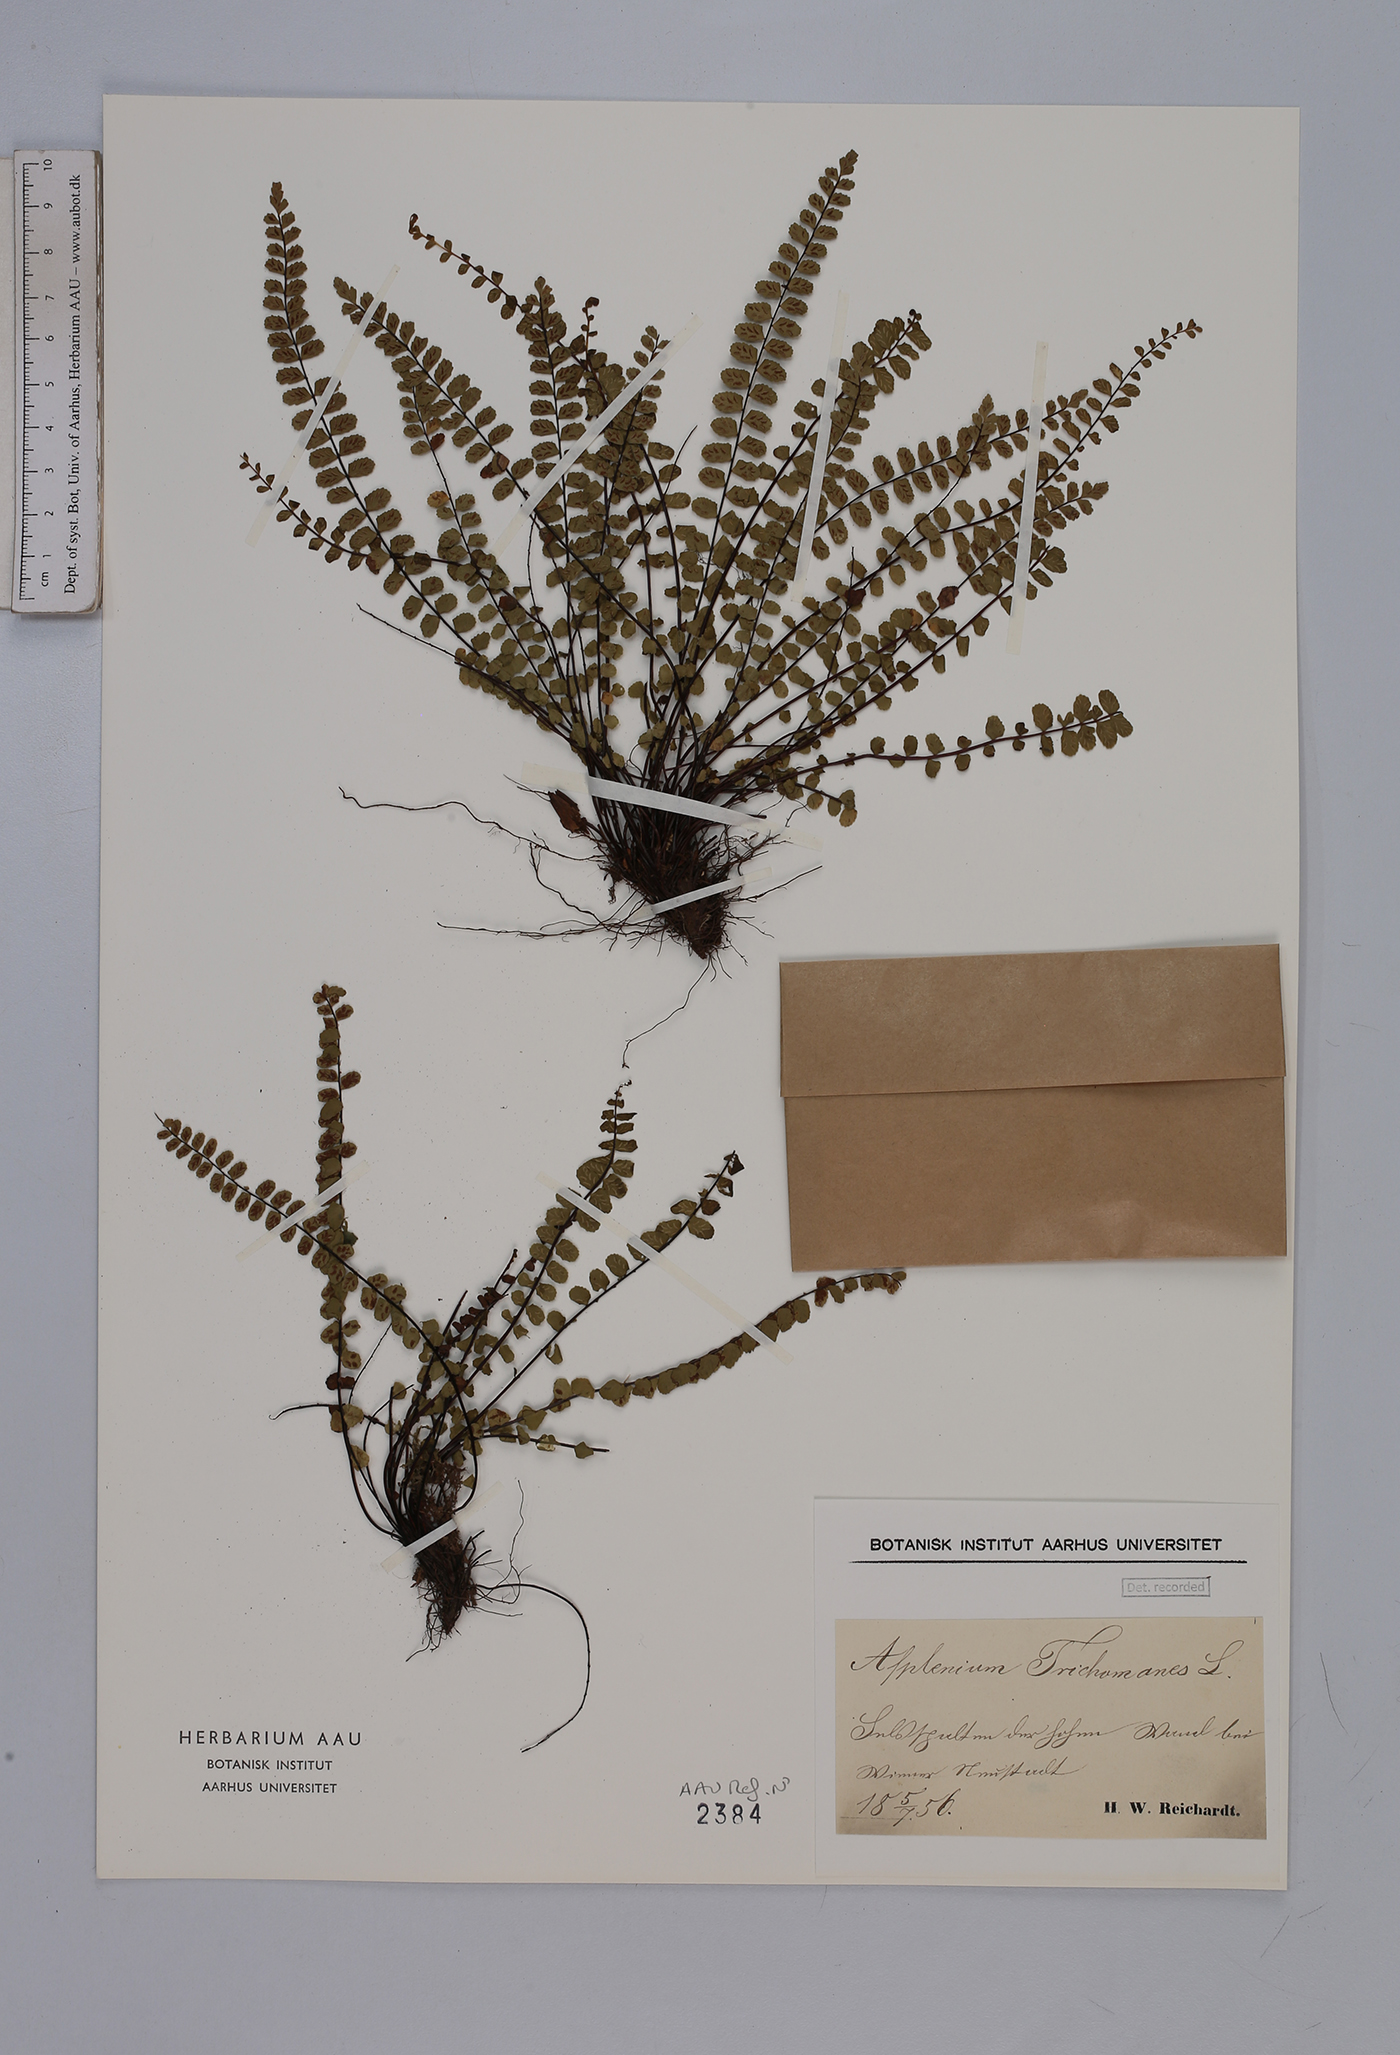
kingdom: Plantae
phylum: Tracheophyta
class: Polypodiopsida
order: Polypodiales
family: Aspleniaceae
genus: Asplenium
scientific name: Asplenium trichomanes
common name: Maidenhair spleenwort
